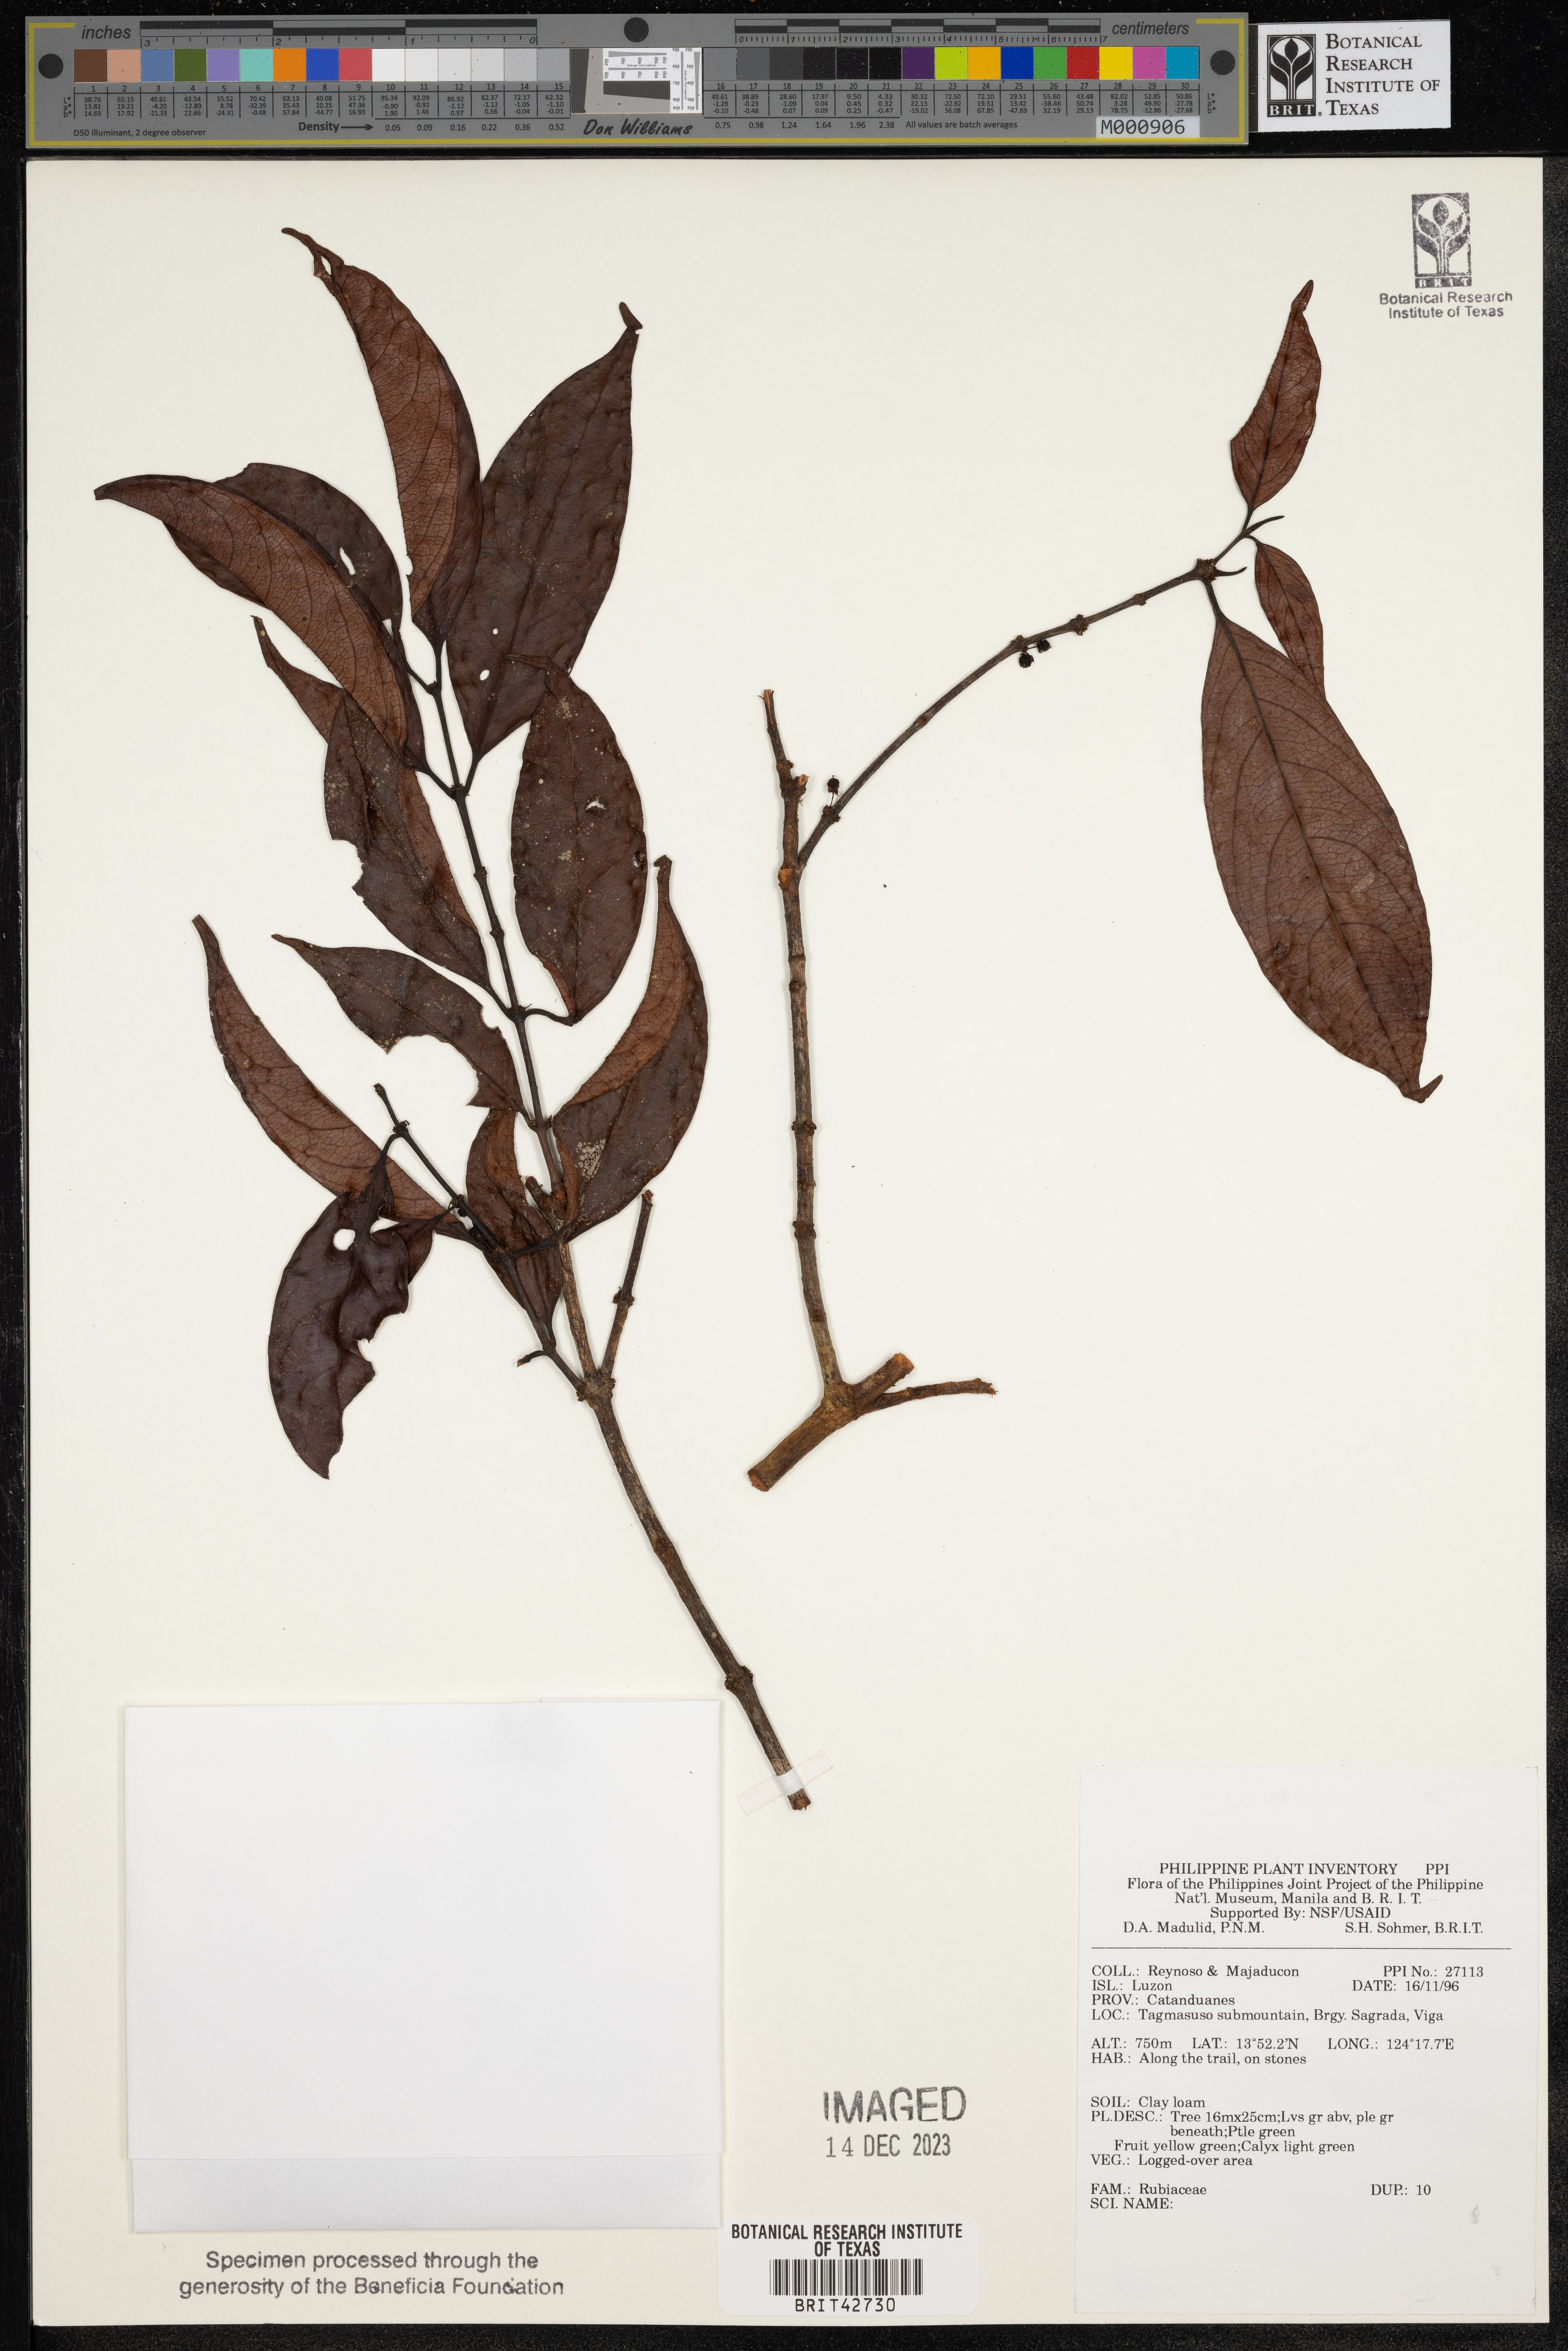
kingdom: Plantae
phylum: Tracheophyta
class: Magnoliopsida
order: Gentianales
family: Rubiaceae
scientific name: Rubiaceae
